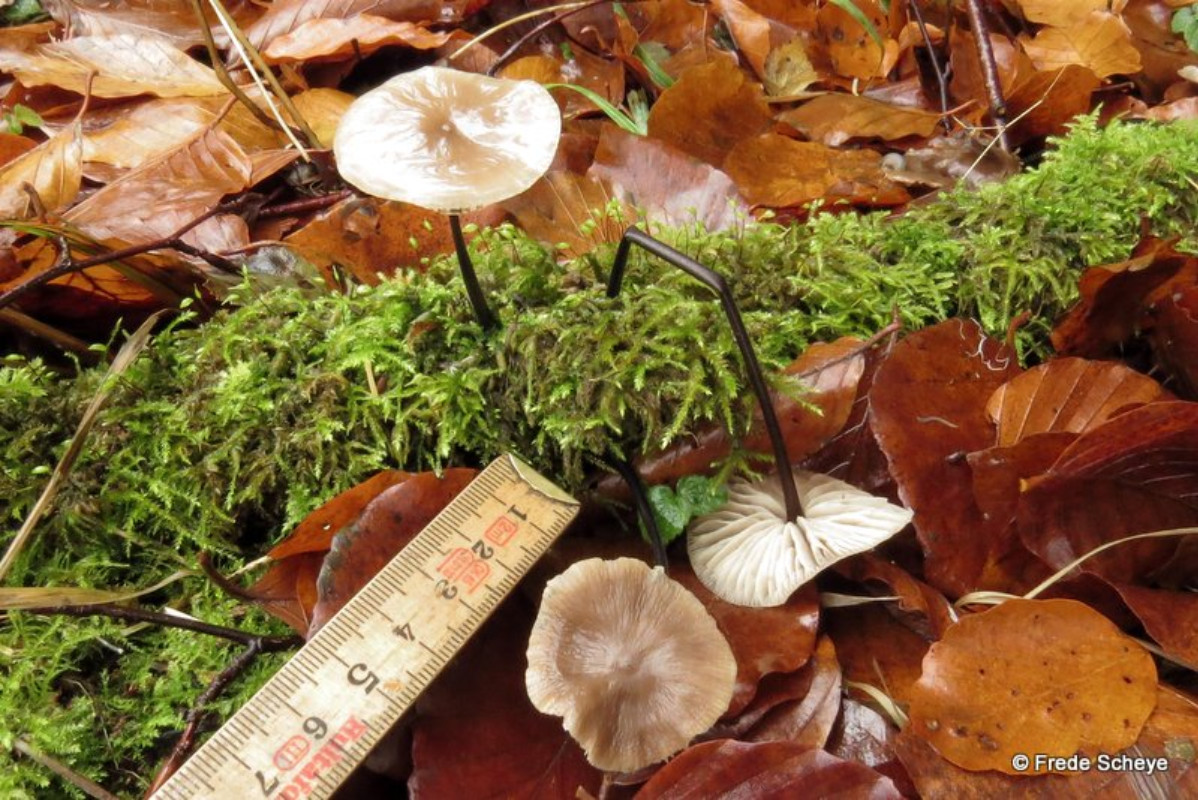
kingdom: Fungi
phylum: Basidiomycota
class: Agaricomycetes
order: Agaricales
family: Omphalotaceae
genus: Mycetinis
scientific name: Mycetinis alliaceus
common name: stor løghat
